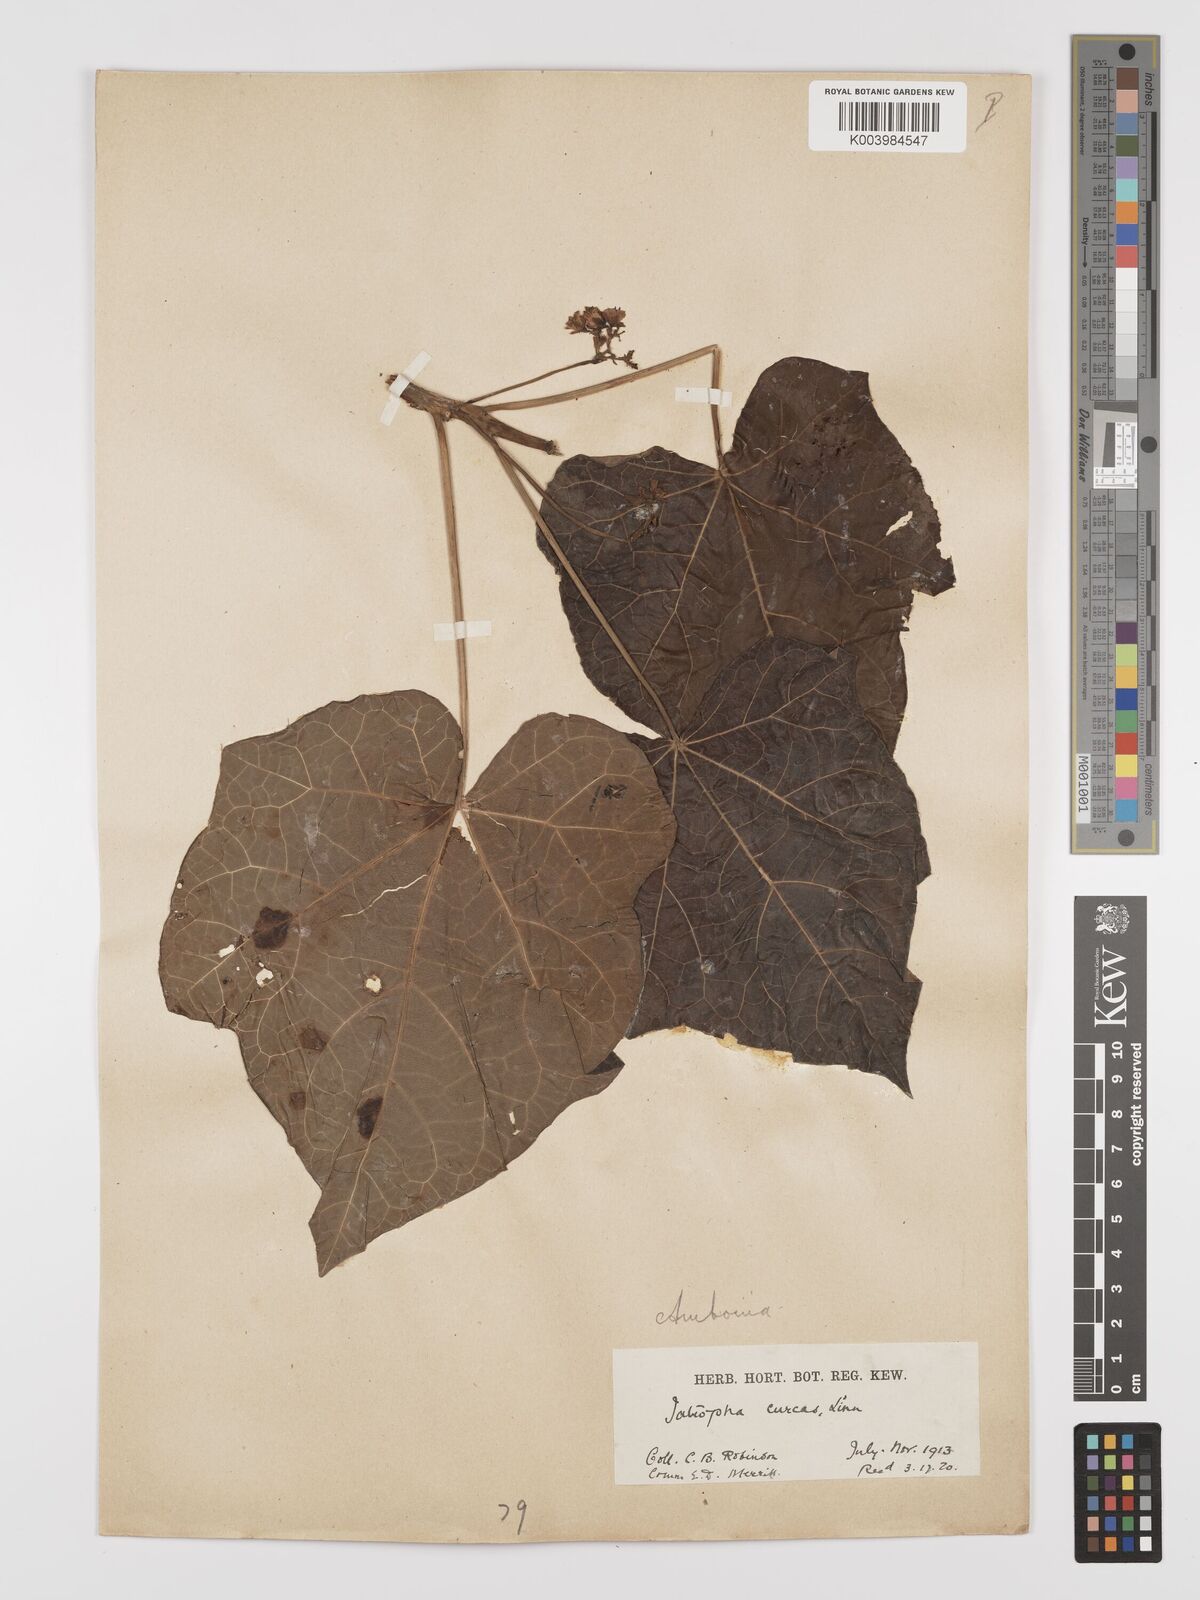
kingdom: Plantae
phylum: Tracheophyta
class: Magnoliopsida
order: Malpighiales
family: Euphorbiaceae
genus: Jatropha
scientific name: Jatropha curcas
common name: Barbados nut
